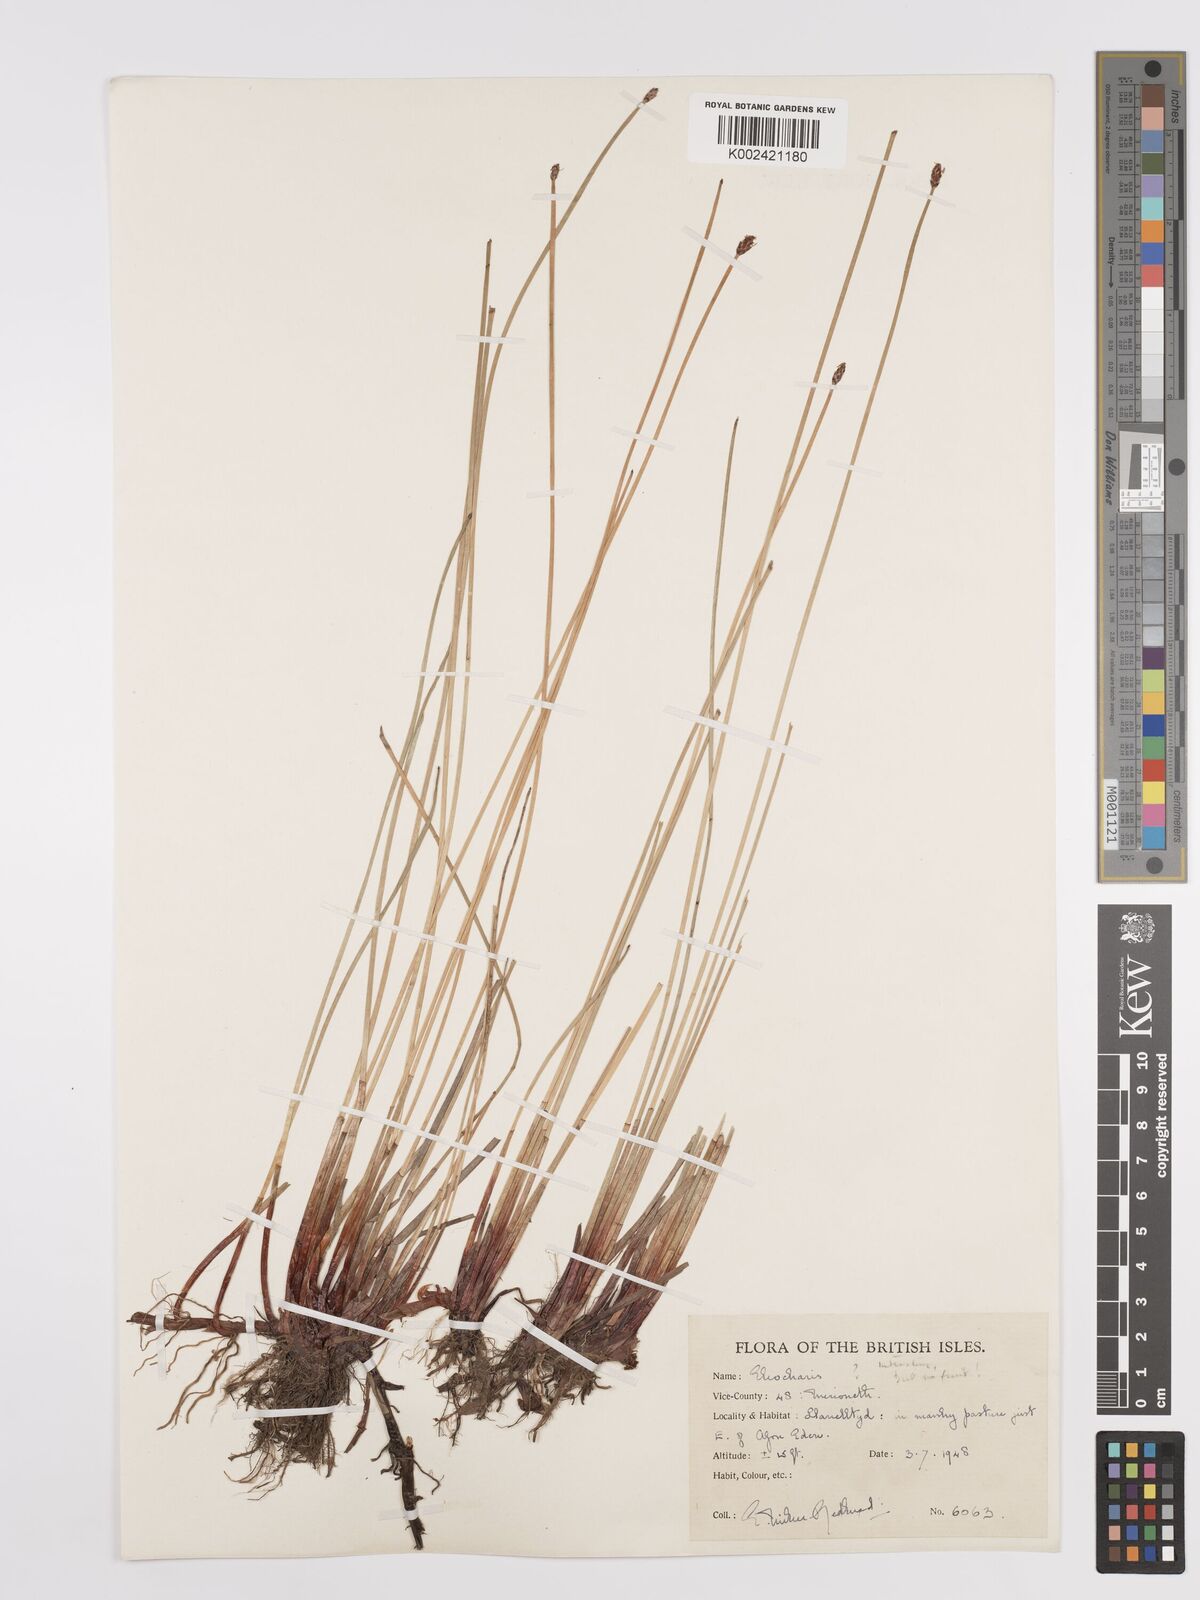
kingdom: Plantae
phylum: Tracheophyta
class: Liliopsida
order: Poales
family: Cyperaceae
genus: Eleocharis
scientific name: Eleocharis palustris
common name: Common spike-rush
